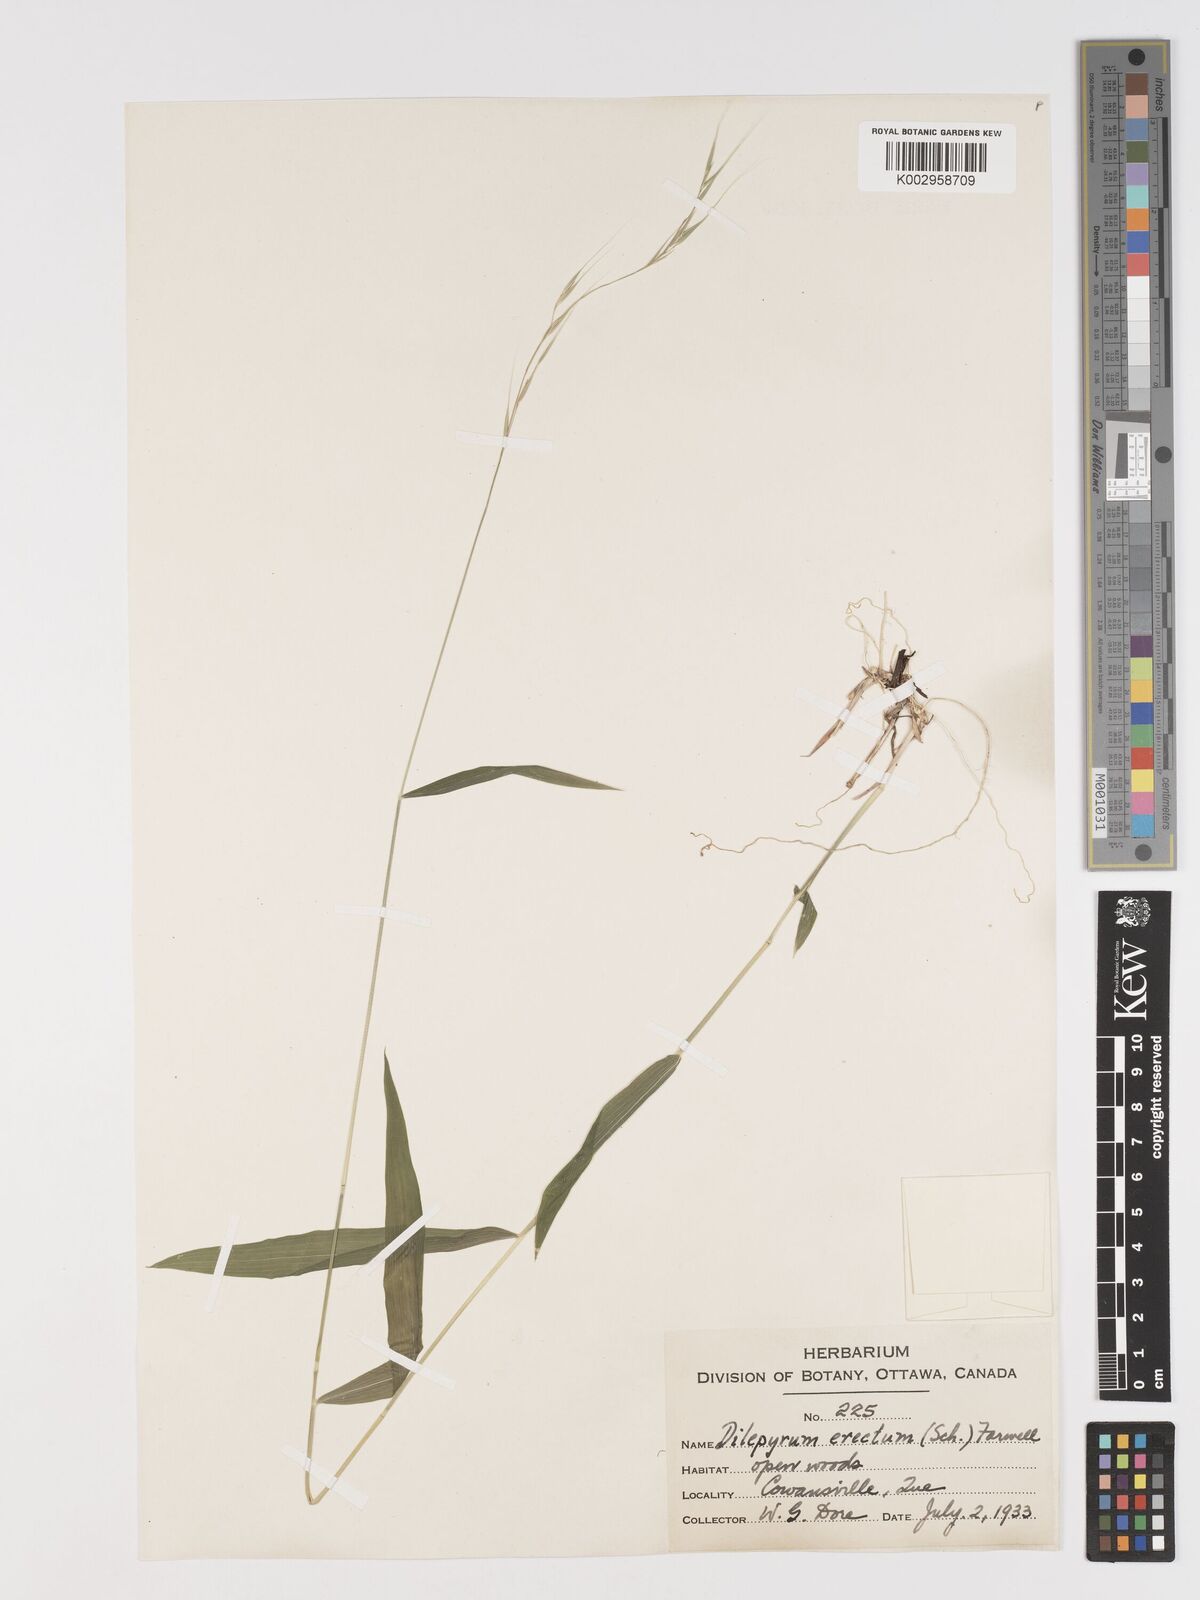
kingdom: Plantae
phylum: Tracheophyta
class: Liliopsida
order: Poales
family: Poaceae
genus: Brachyelytrum
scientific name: Brachyelytrum aristosum
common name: Northern shorthusk
